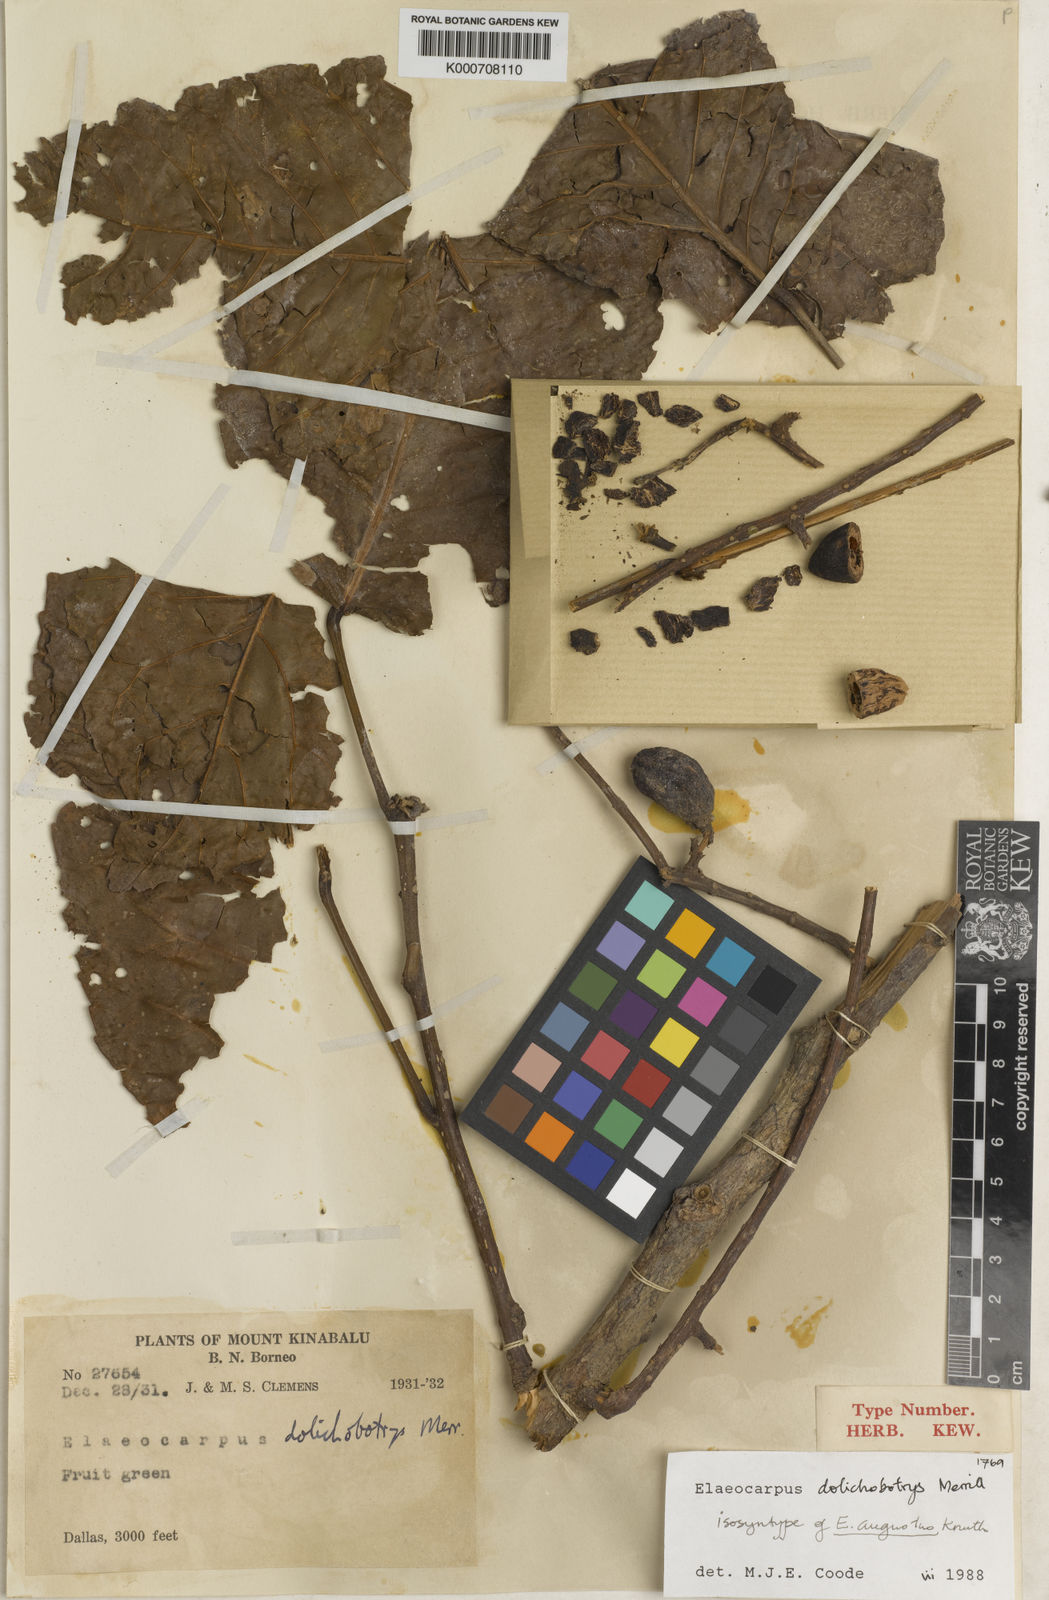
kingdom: Plantae
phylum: Tracheophyta
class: Magnoliopsida
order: Oxalidales
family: Elaeocarpaceae
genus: Elaeocarpus
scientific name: Elaeocarpus dolichobotrys
